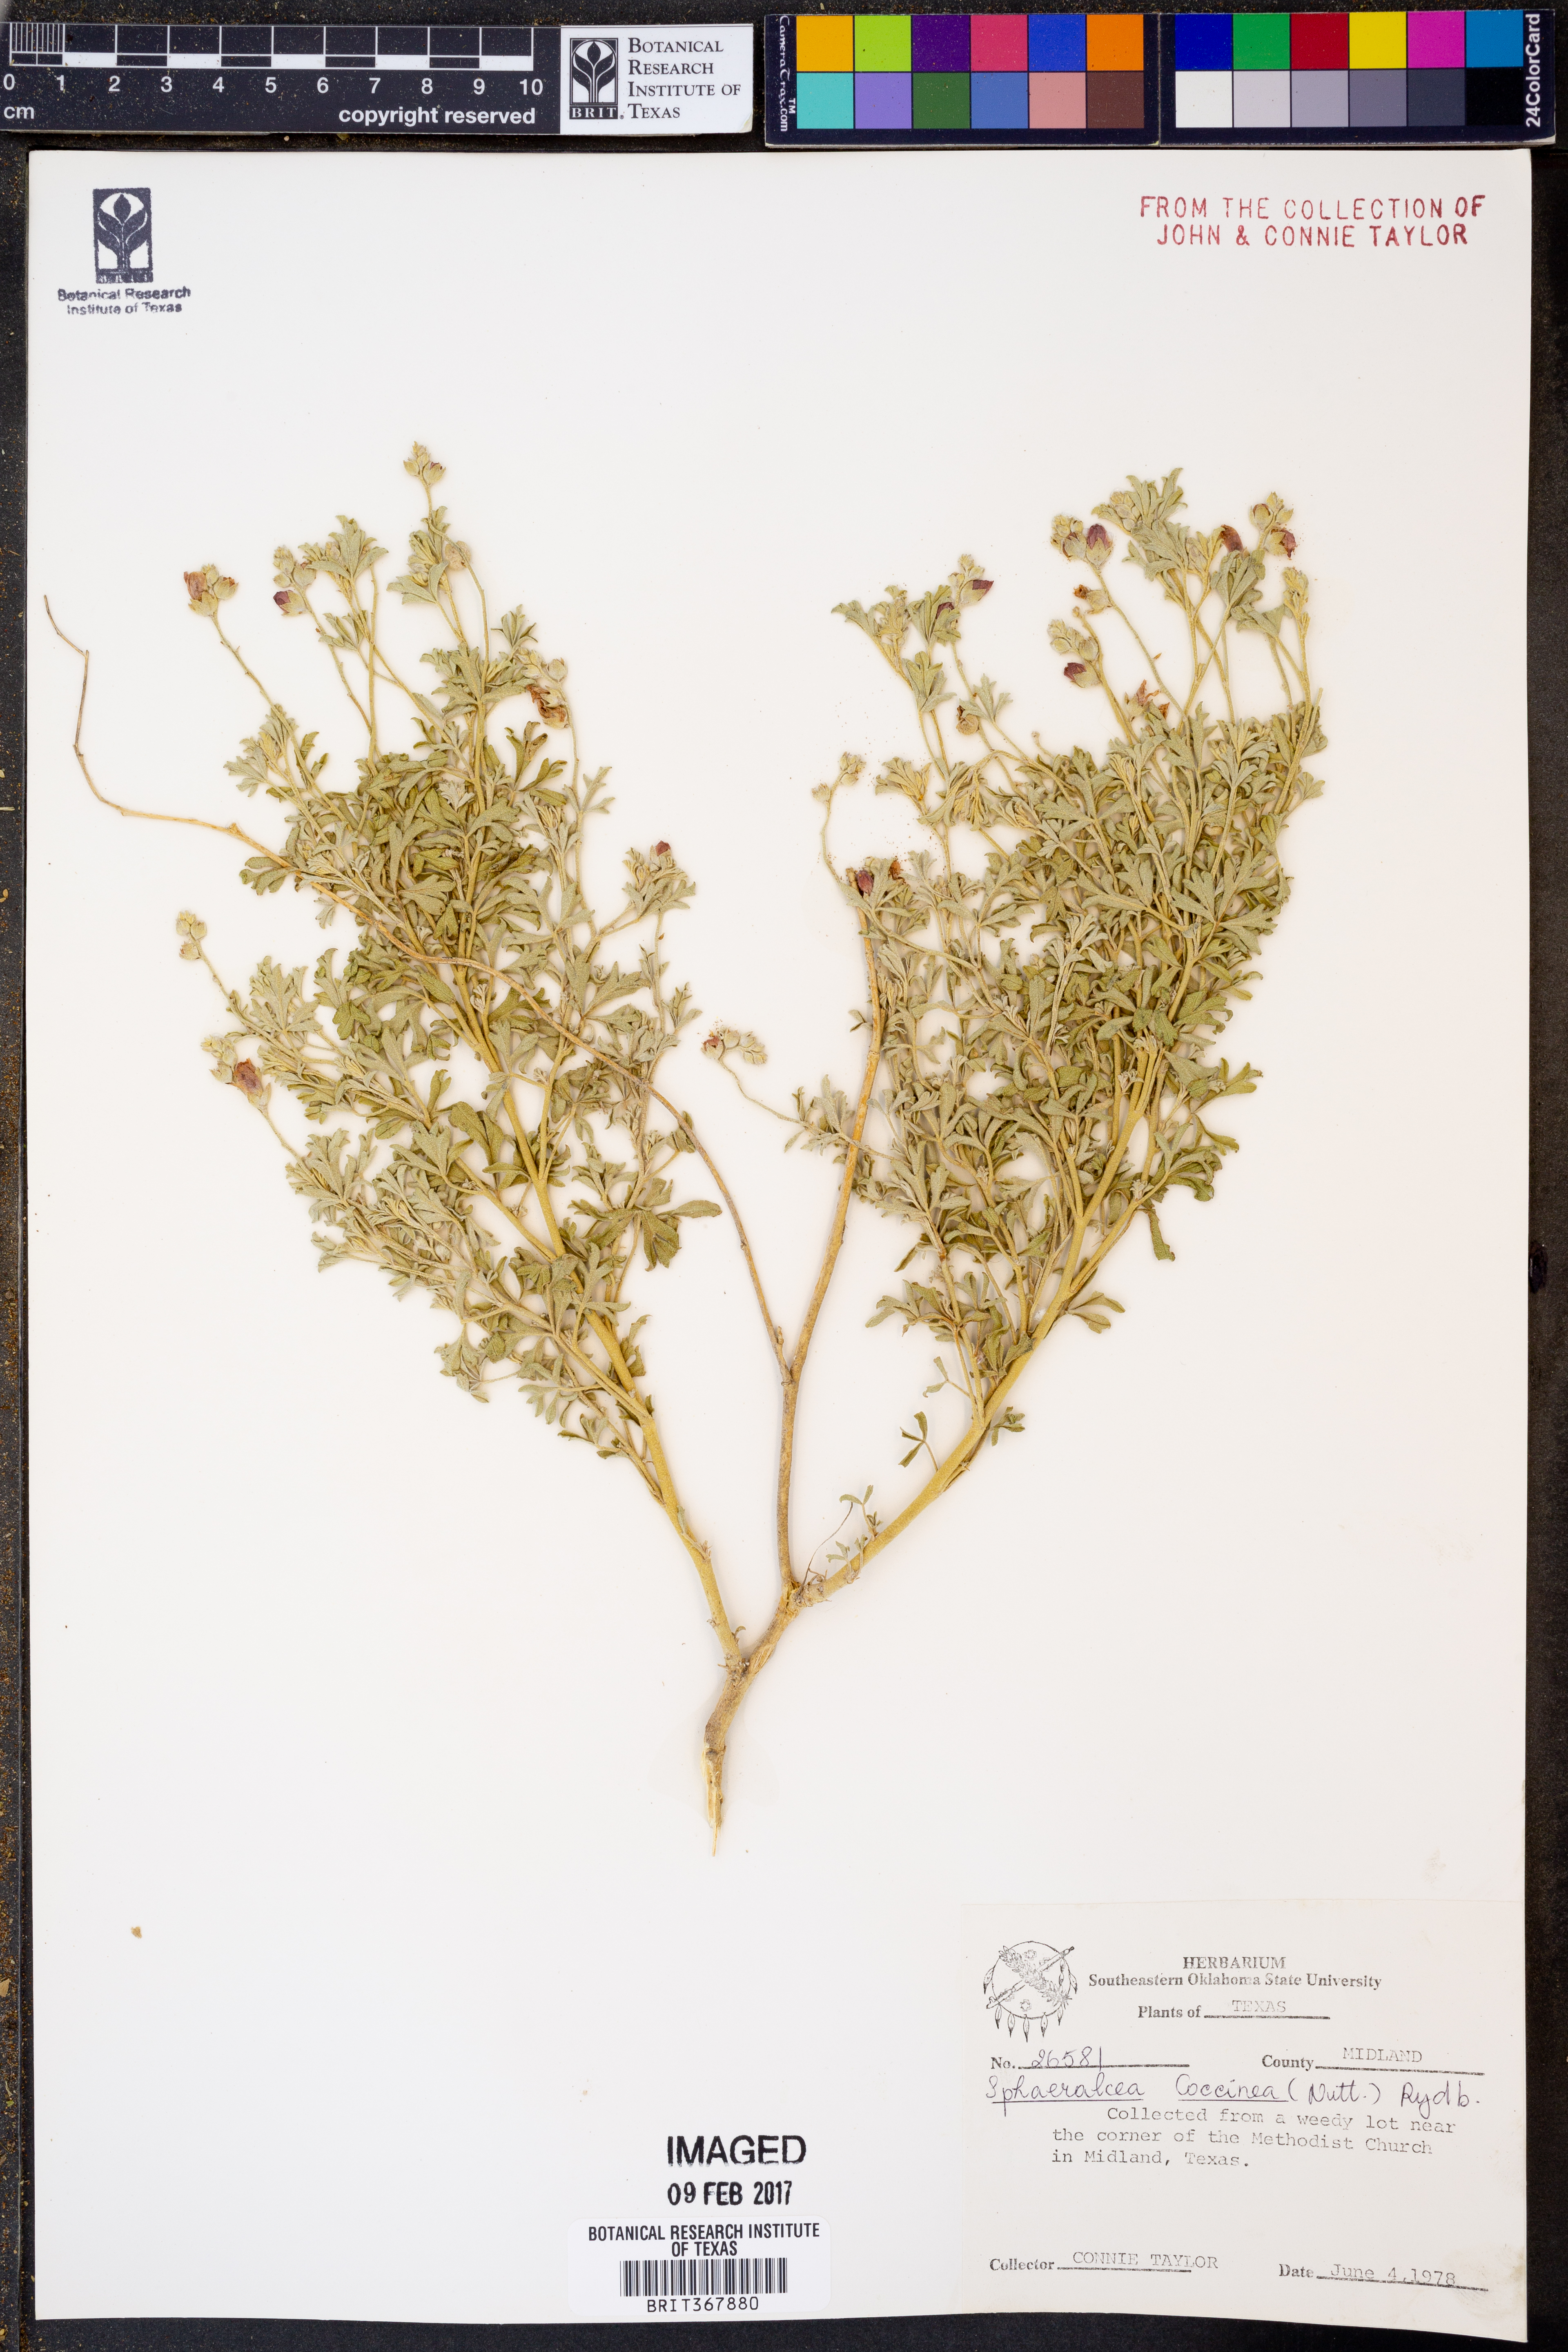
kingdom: Plantae
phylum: Tracheophyta
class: Magnoliopsida
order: Malvales
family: Malvaceae
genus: Sphaeralcea
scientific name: Sphaeralcea coccinea
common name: Moss-rose
